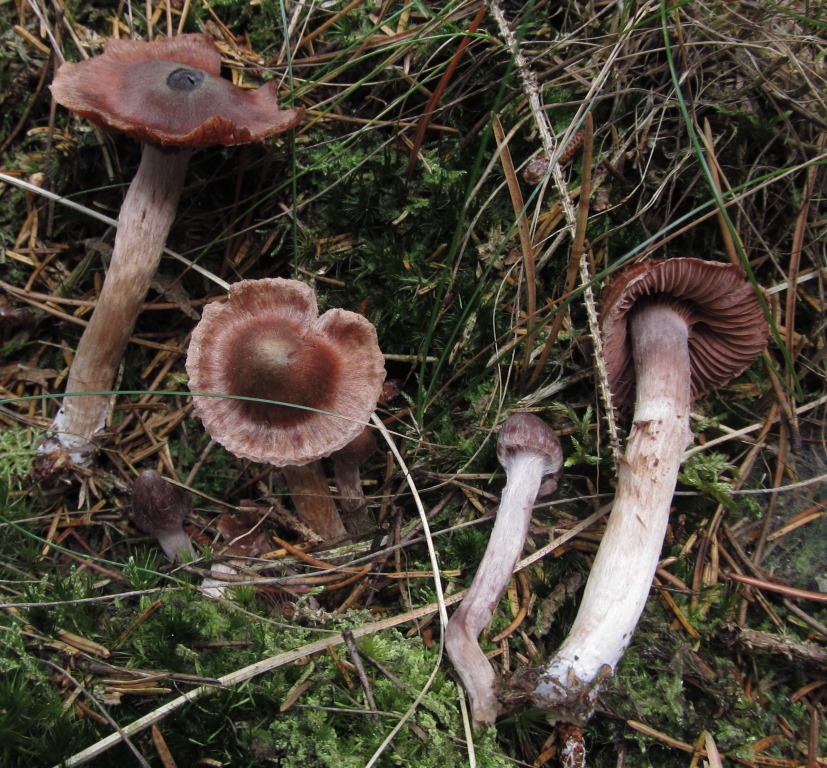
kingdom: Fungi
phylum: Basidiomycota
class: Agaricomycetes
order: Agaricales
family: Cortinariaceae
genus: Cortinarius
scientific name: Cortinarius
